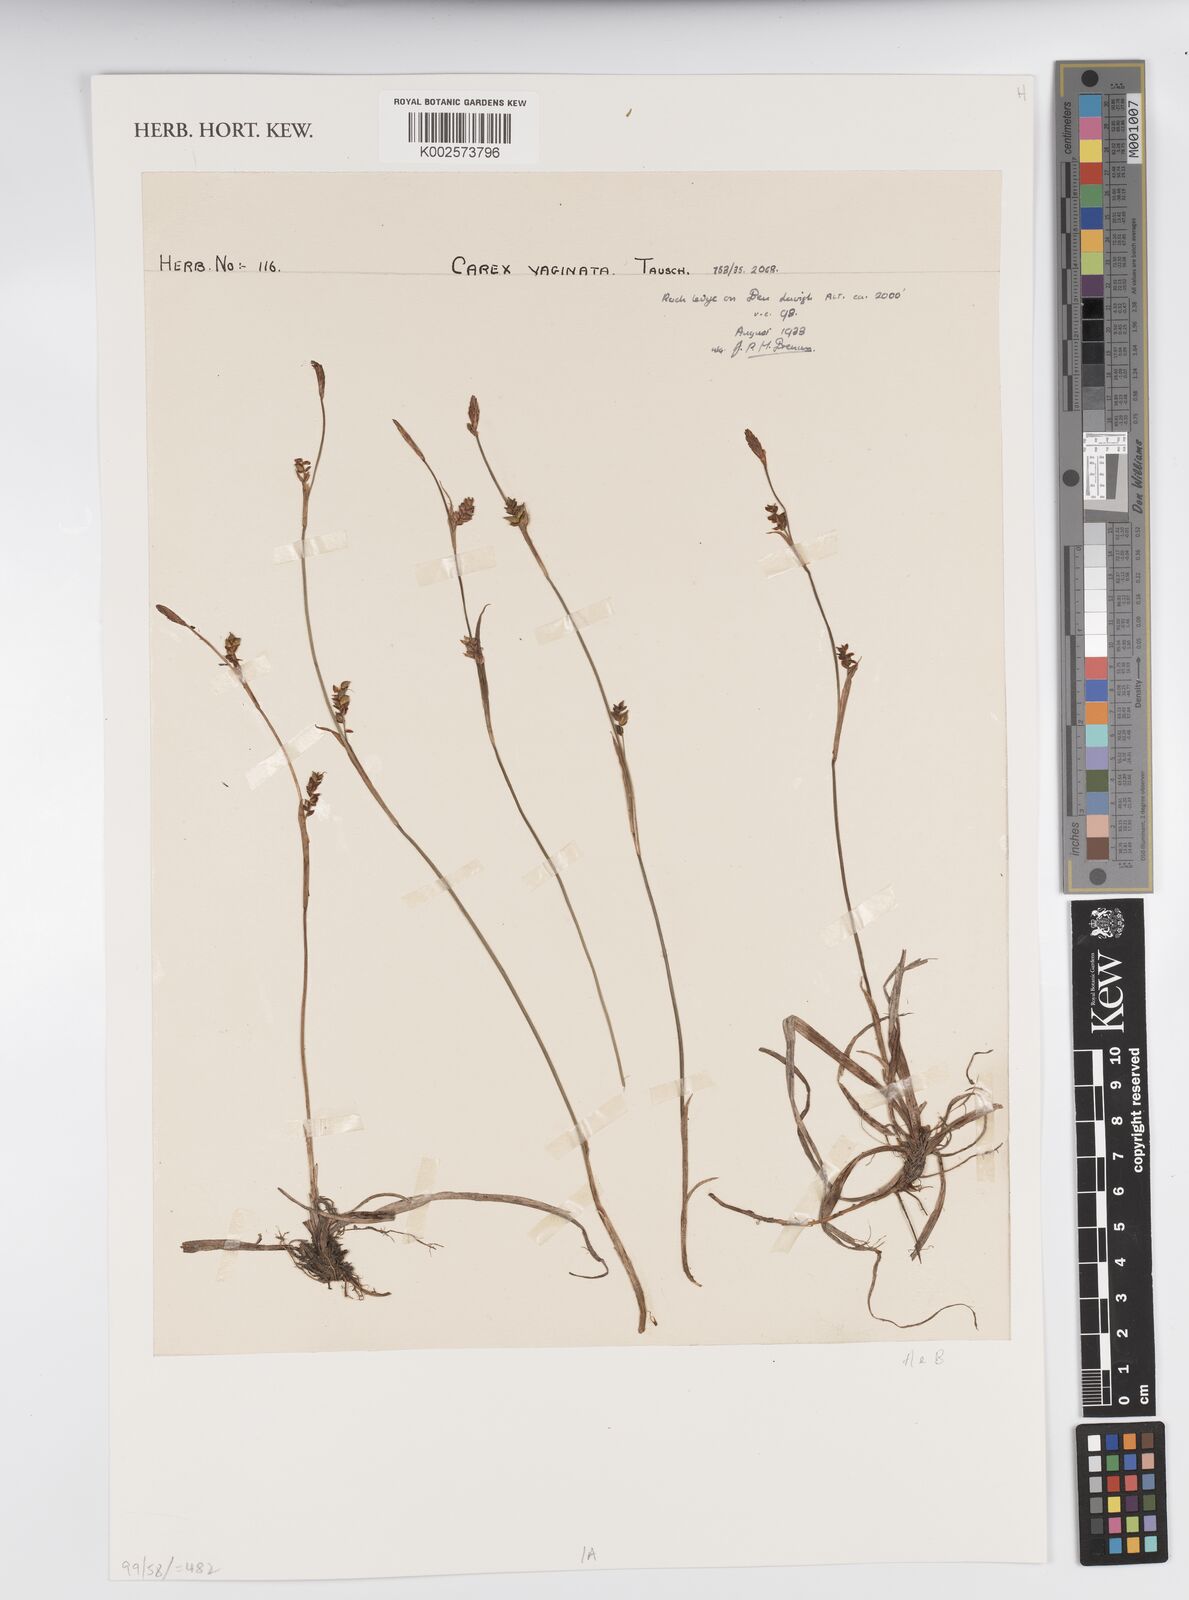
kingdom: Plantae
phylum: Tracheophyta
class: Liliopsida
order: Poales
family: Cyperaceae
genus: Carex
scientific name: Carex vaginata
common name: Sheathed sedge
